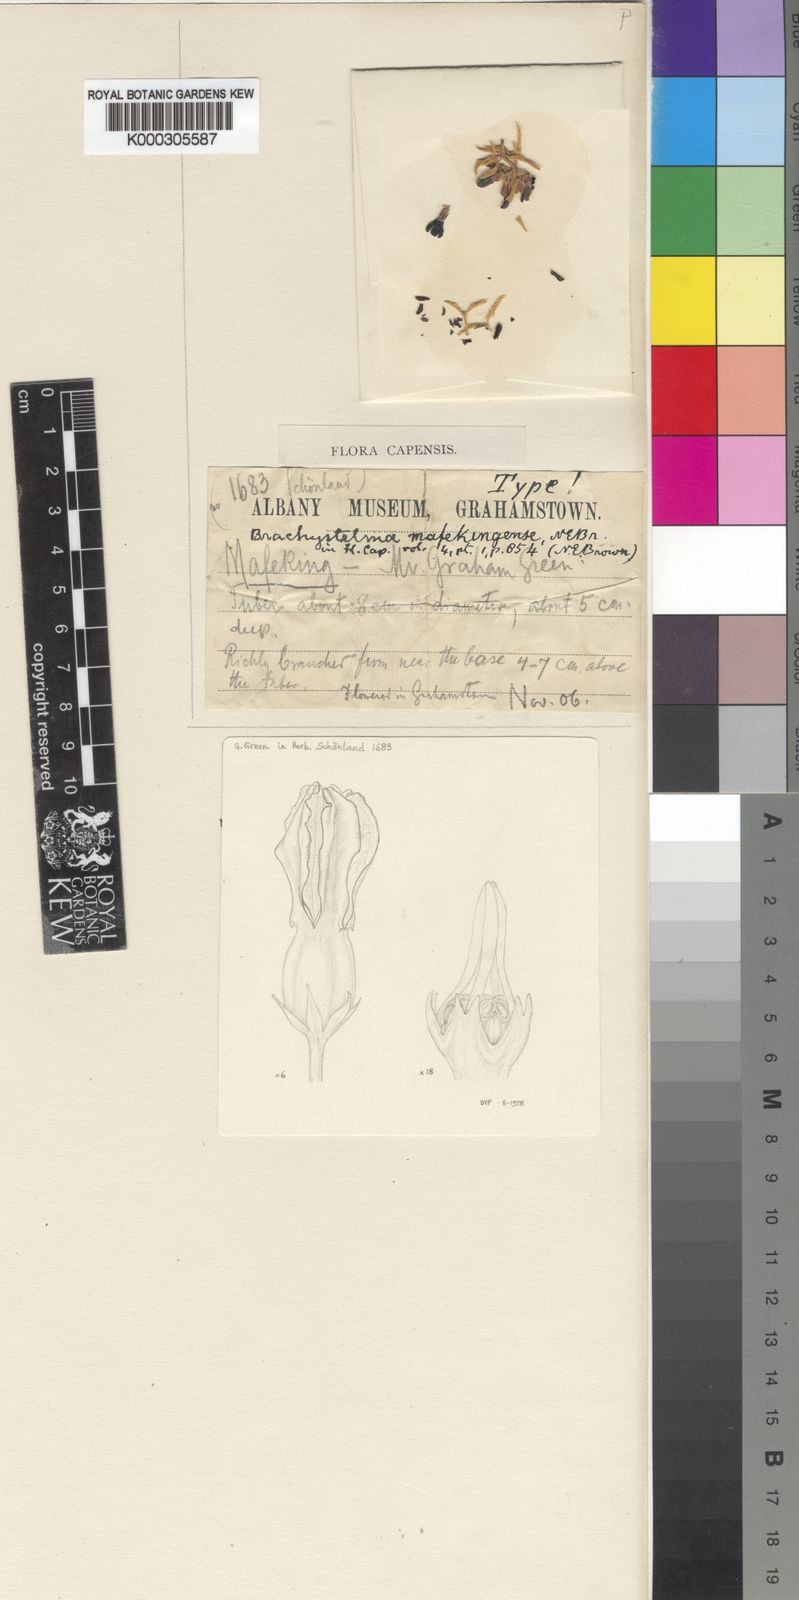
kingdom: Plantae
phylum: Tracheophyta
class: Magnoliopsida
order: Gentianales
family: Apocynaceae
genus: Ceropegia
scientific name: Ceropegia mafekingensis
